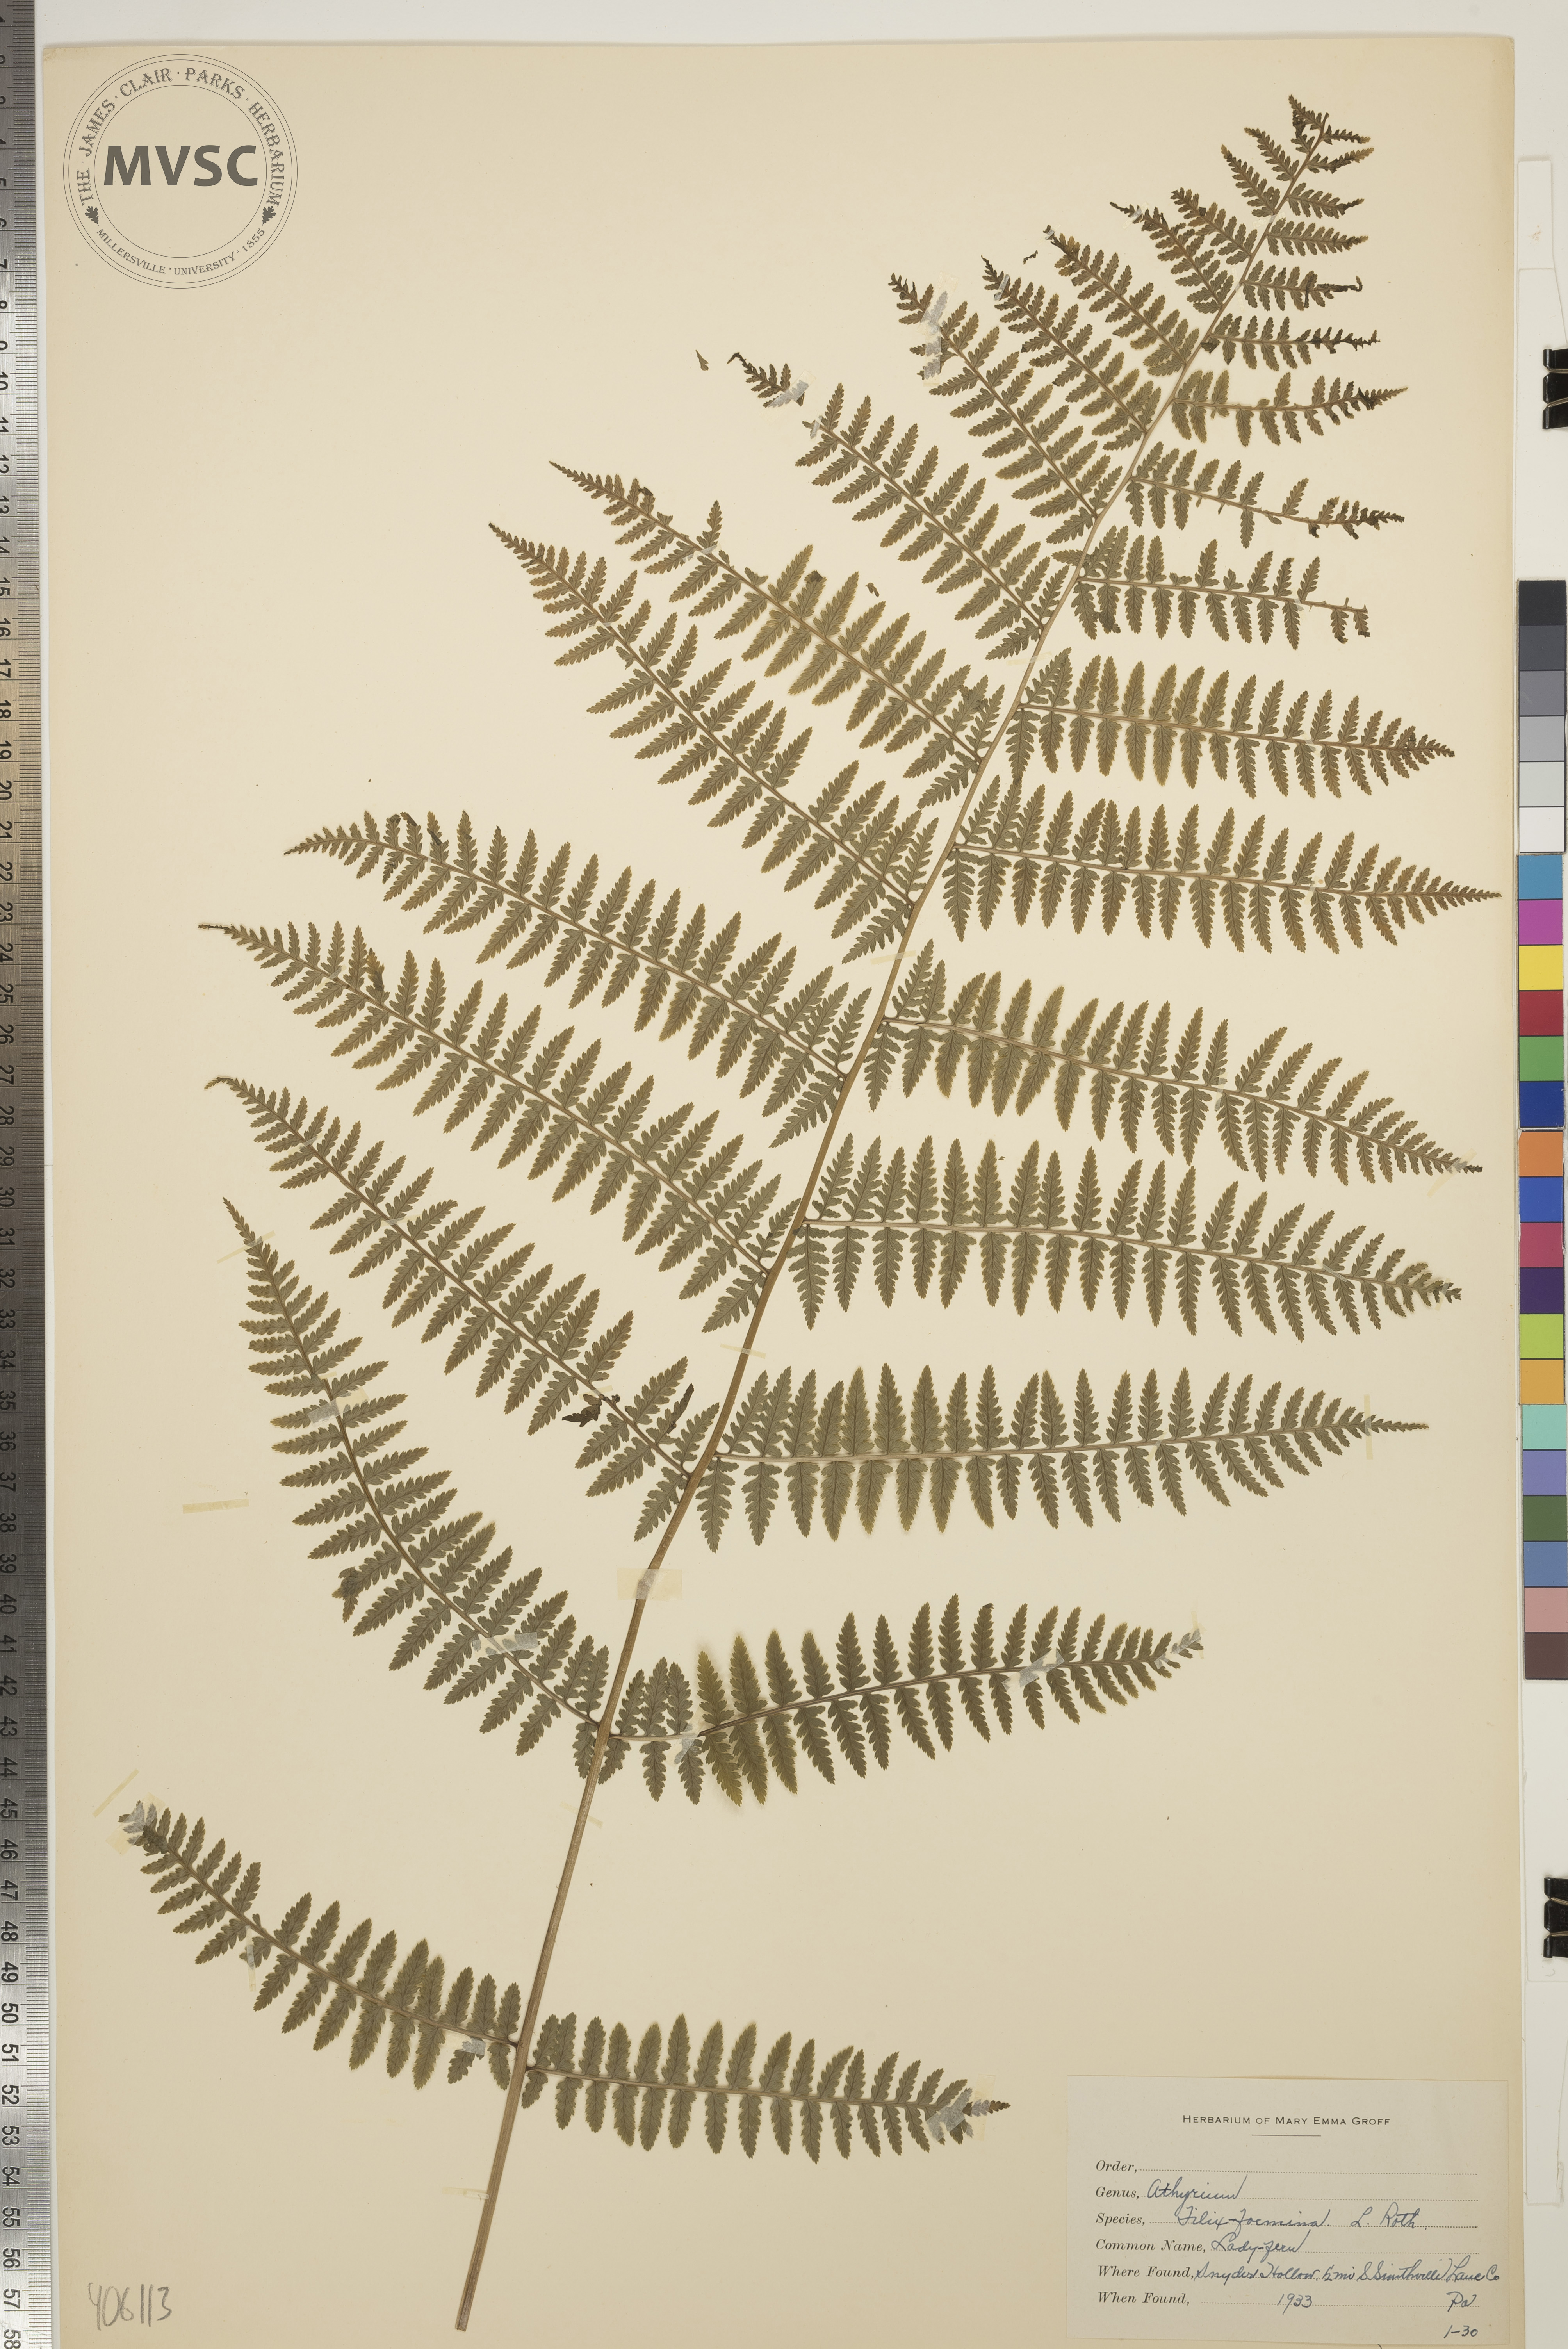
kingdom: Plantae
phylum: Tracheophyta
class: Polypodiopsida
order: Polypodiales
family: Athyriaceae
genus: Athyrium
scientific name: Athyrium filix-femina
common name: Lady Fern
